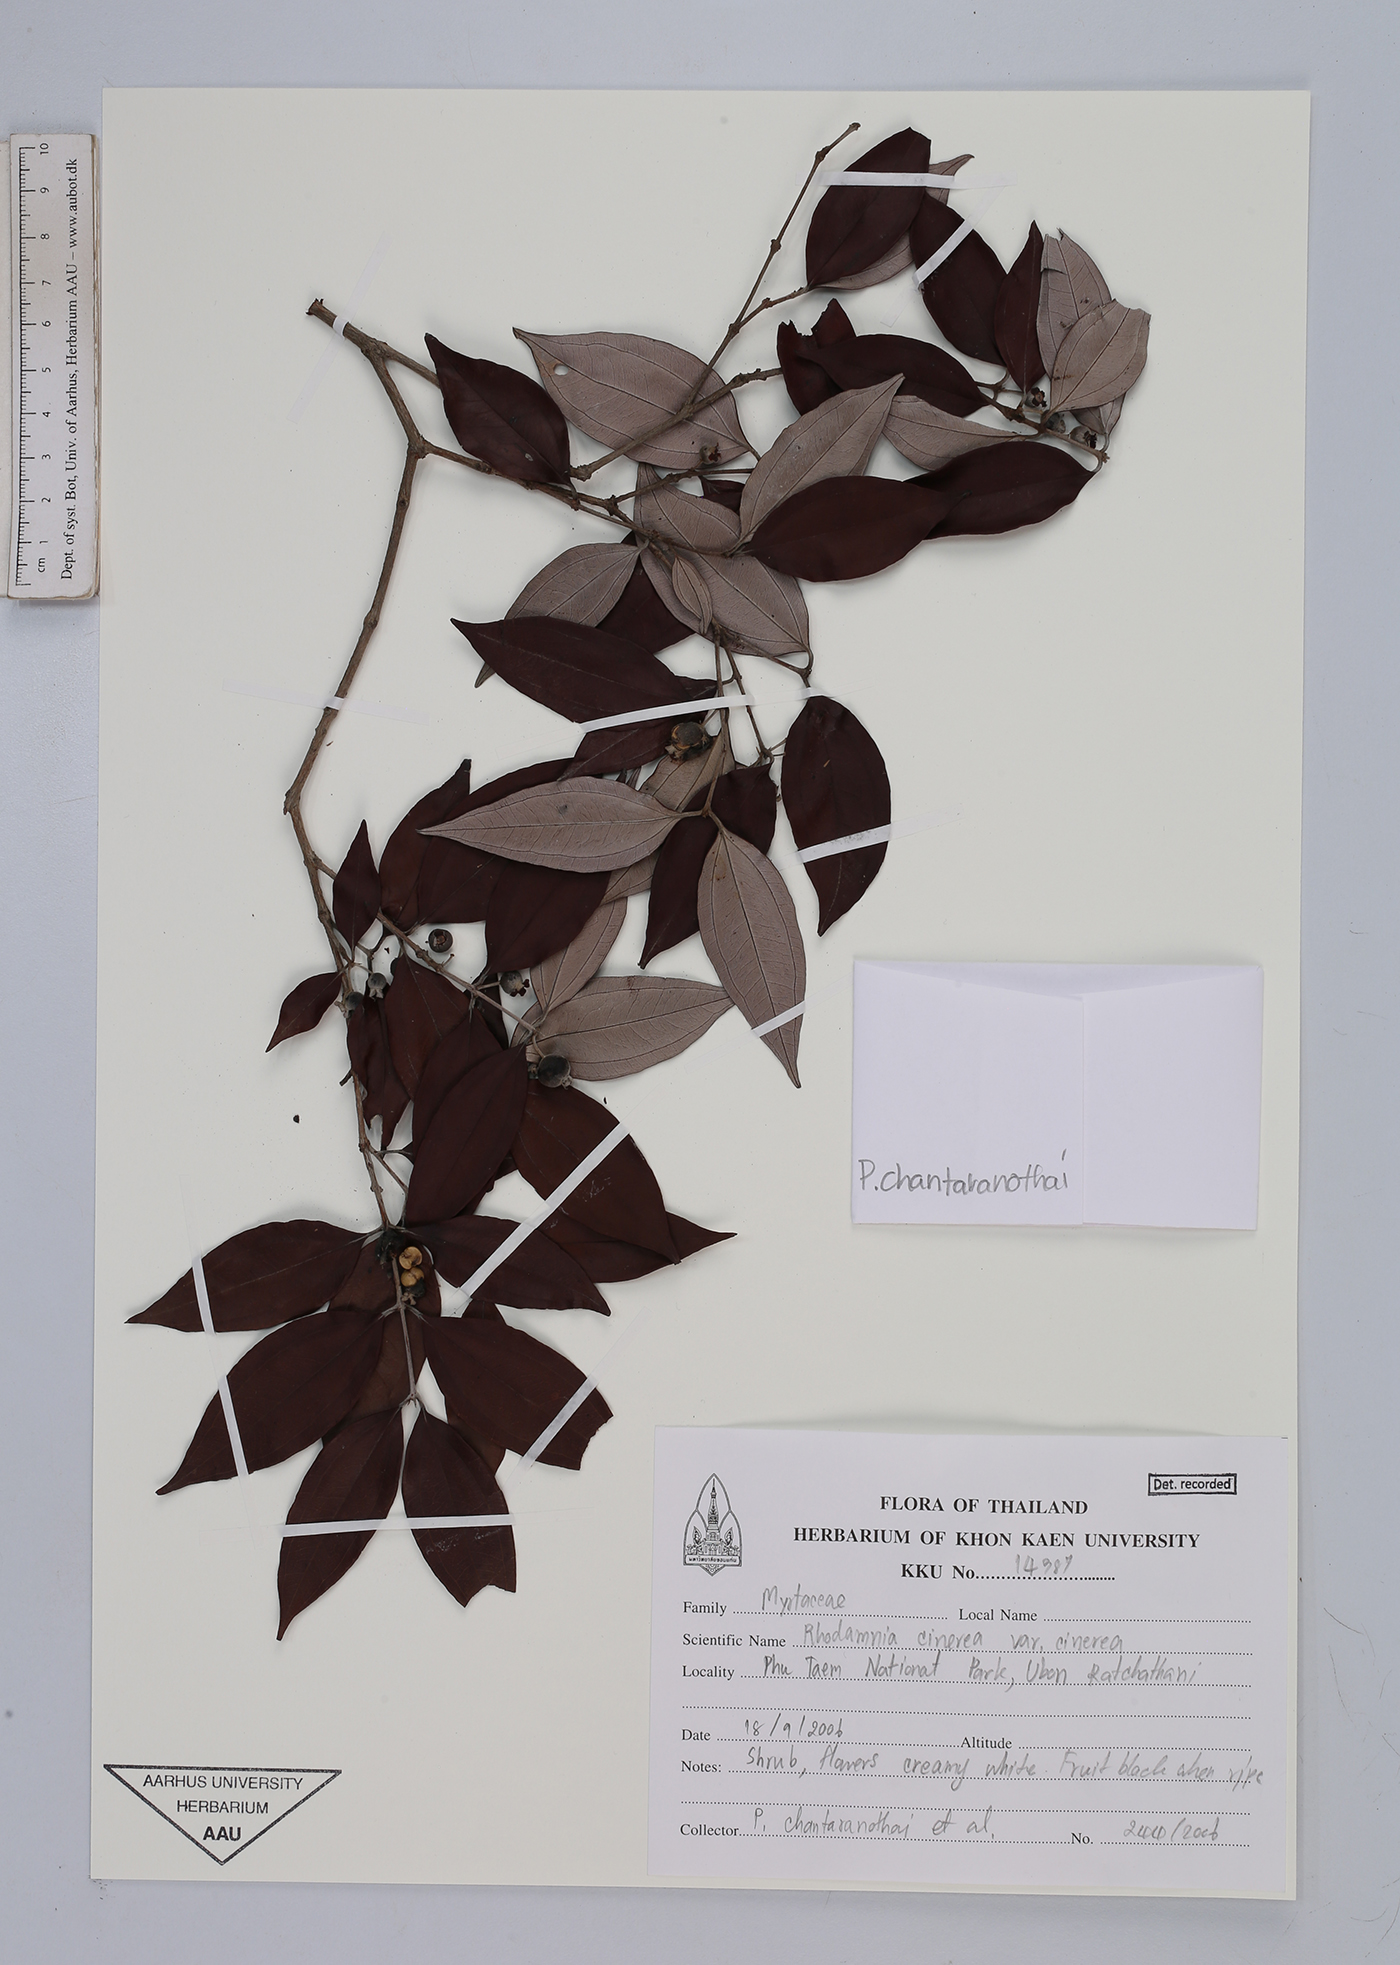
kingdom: Plantae
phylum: Tracheophyta
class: Magnoliopsida
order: Myrtales
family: Myrtaceae
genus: Rhodamnia
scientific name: Rhodamnia cinerea
